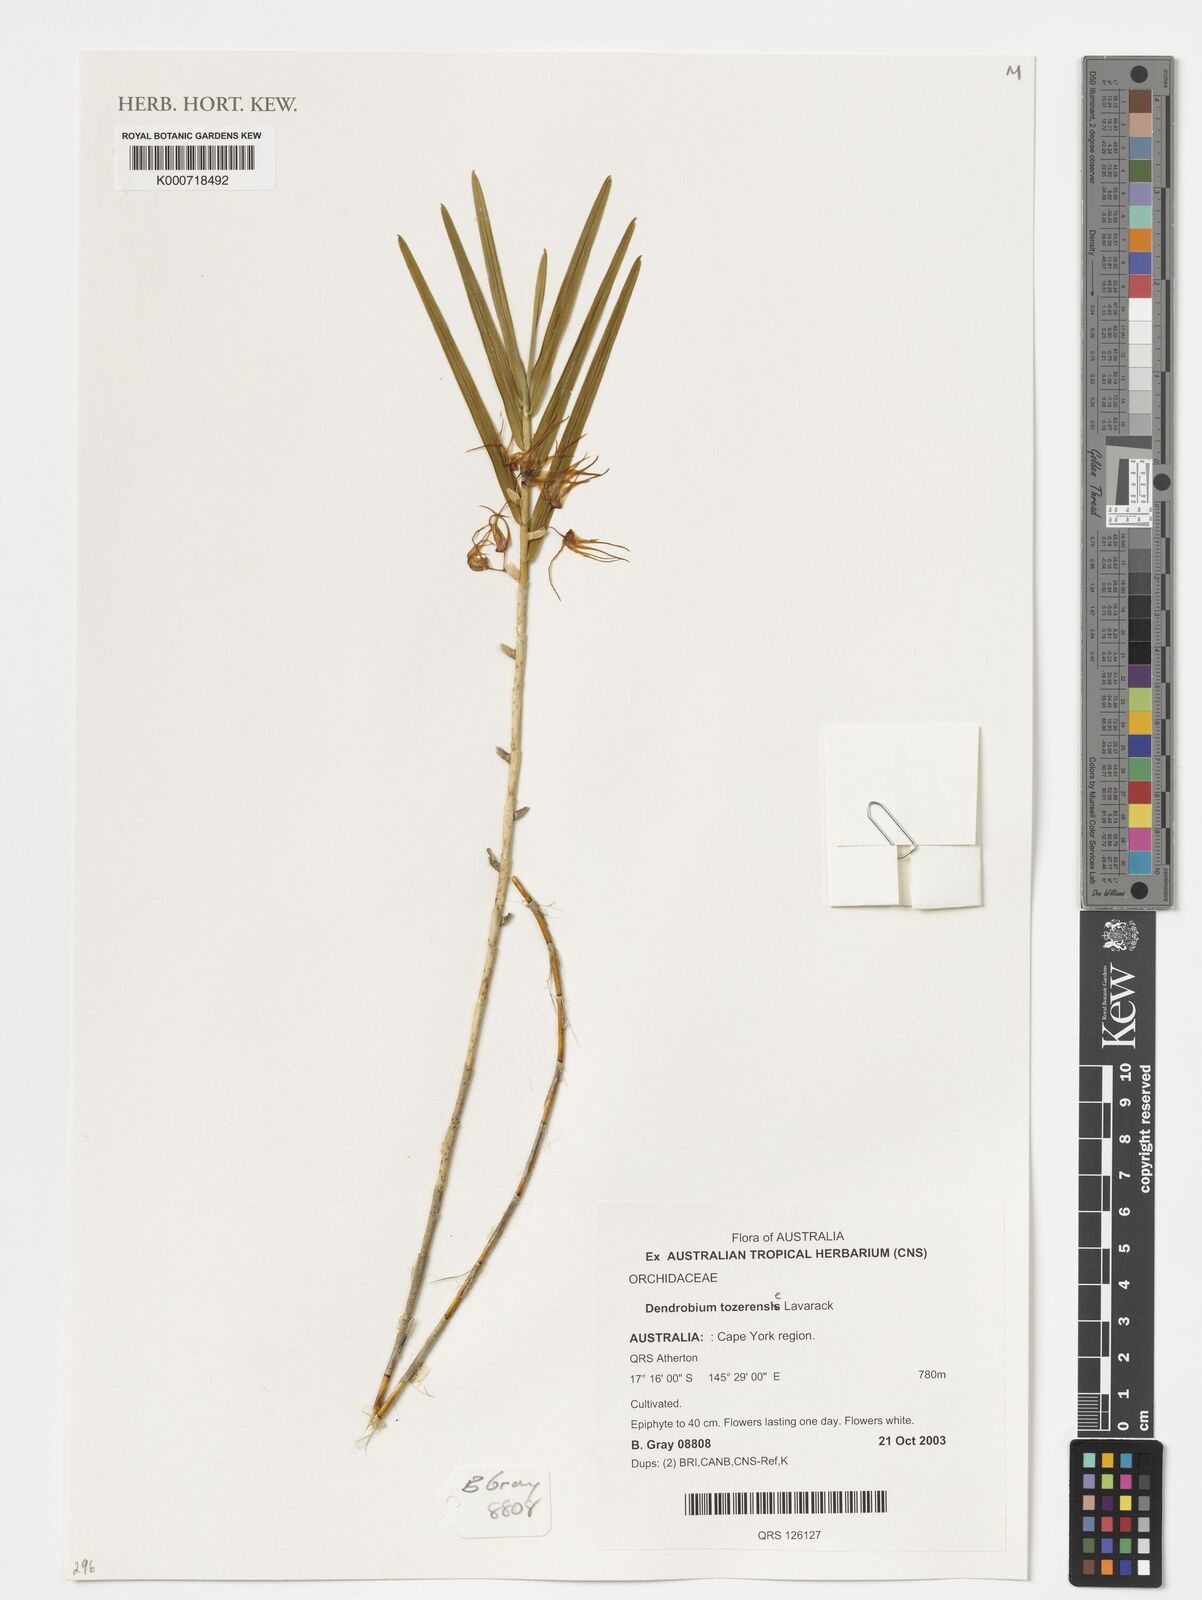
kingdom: Plantae
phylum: Tracheophyta
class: Liliopsida
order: Asparagales
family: Orchidaceae
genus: Dendrobium
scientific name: Dendrobium tozerense
